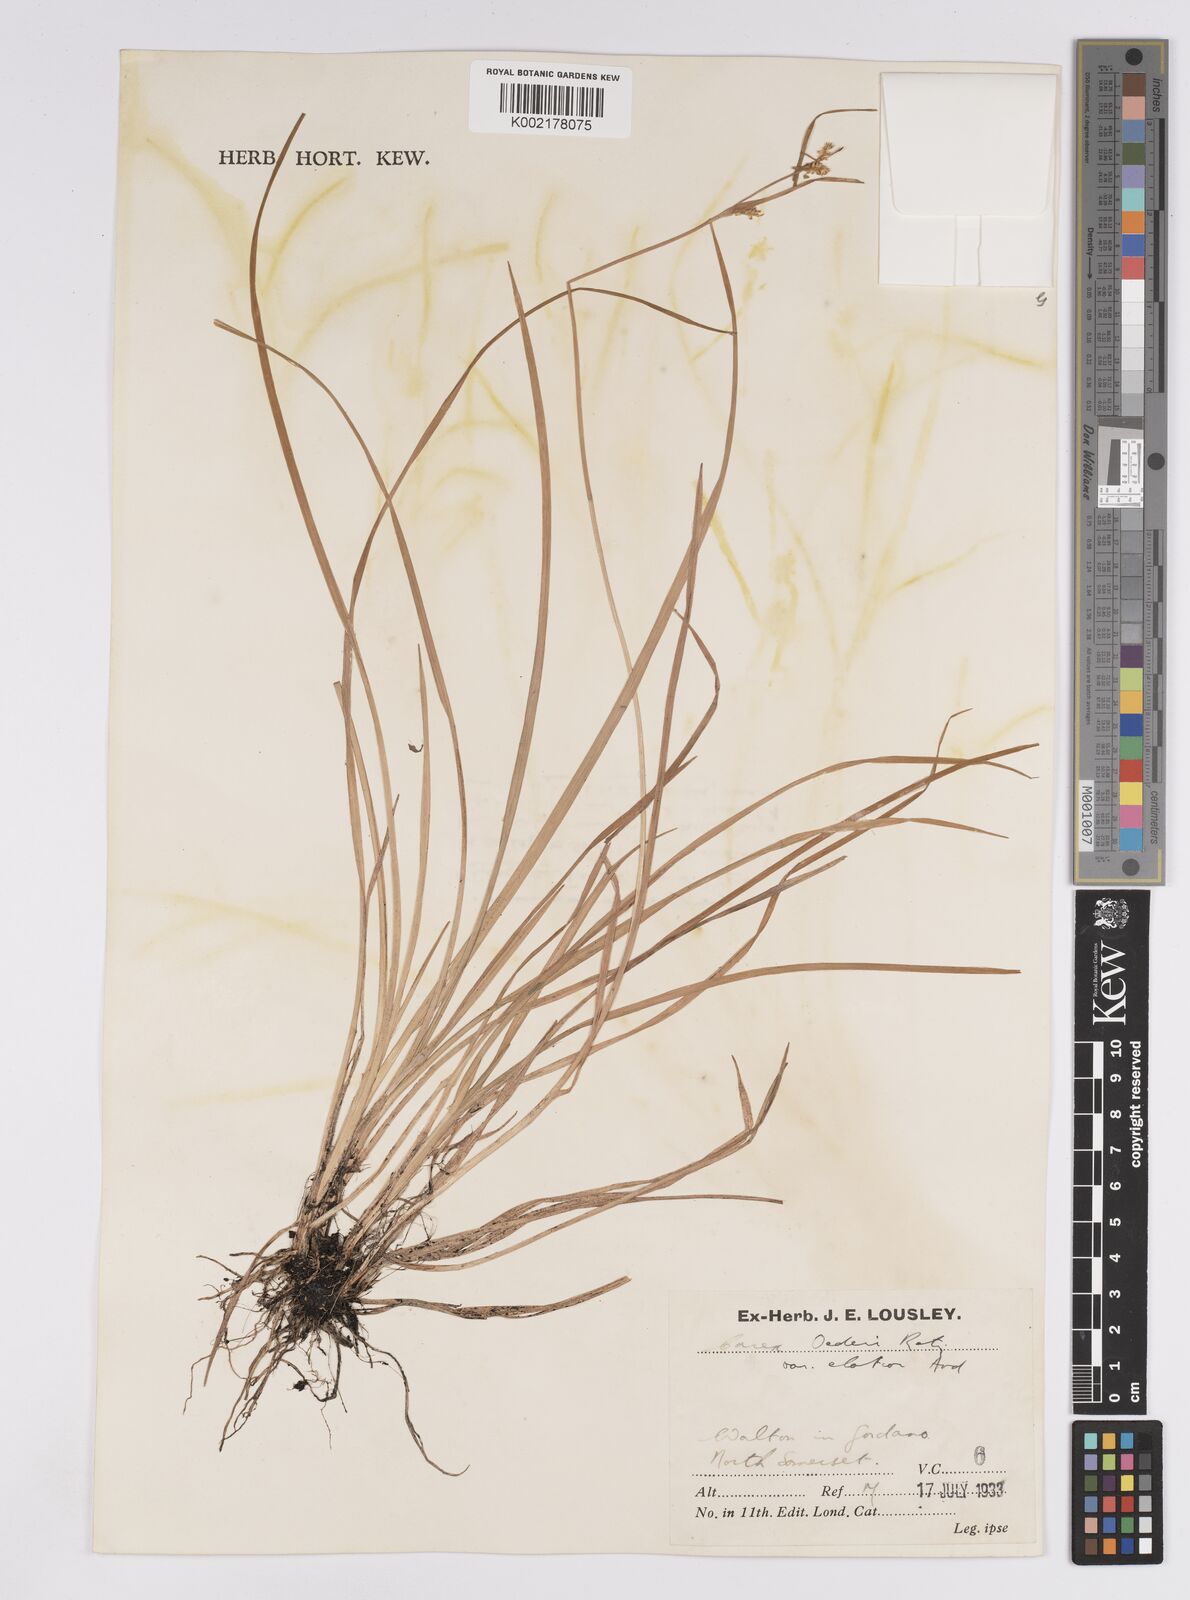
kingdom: Plantae
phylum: Tracheophyta
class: Liliopsida
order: Poales
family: Cyperaceae
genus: Carex
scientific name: Carex demissa
